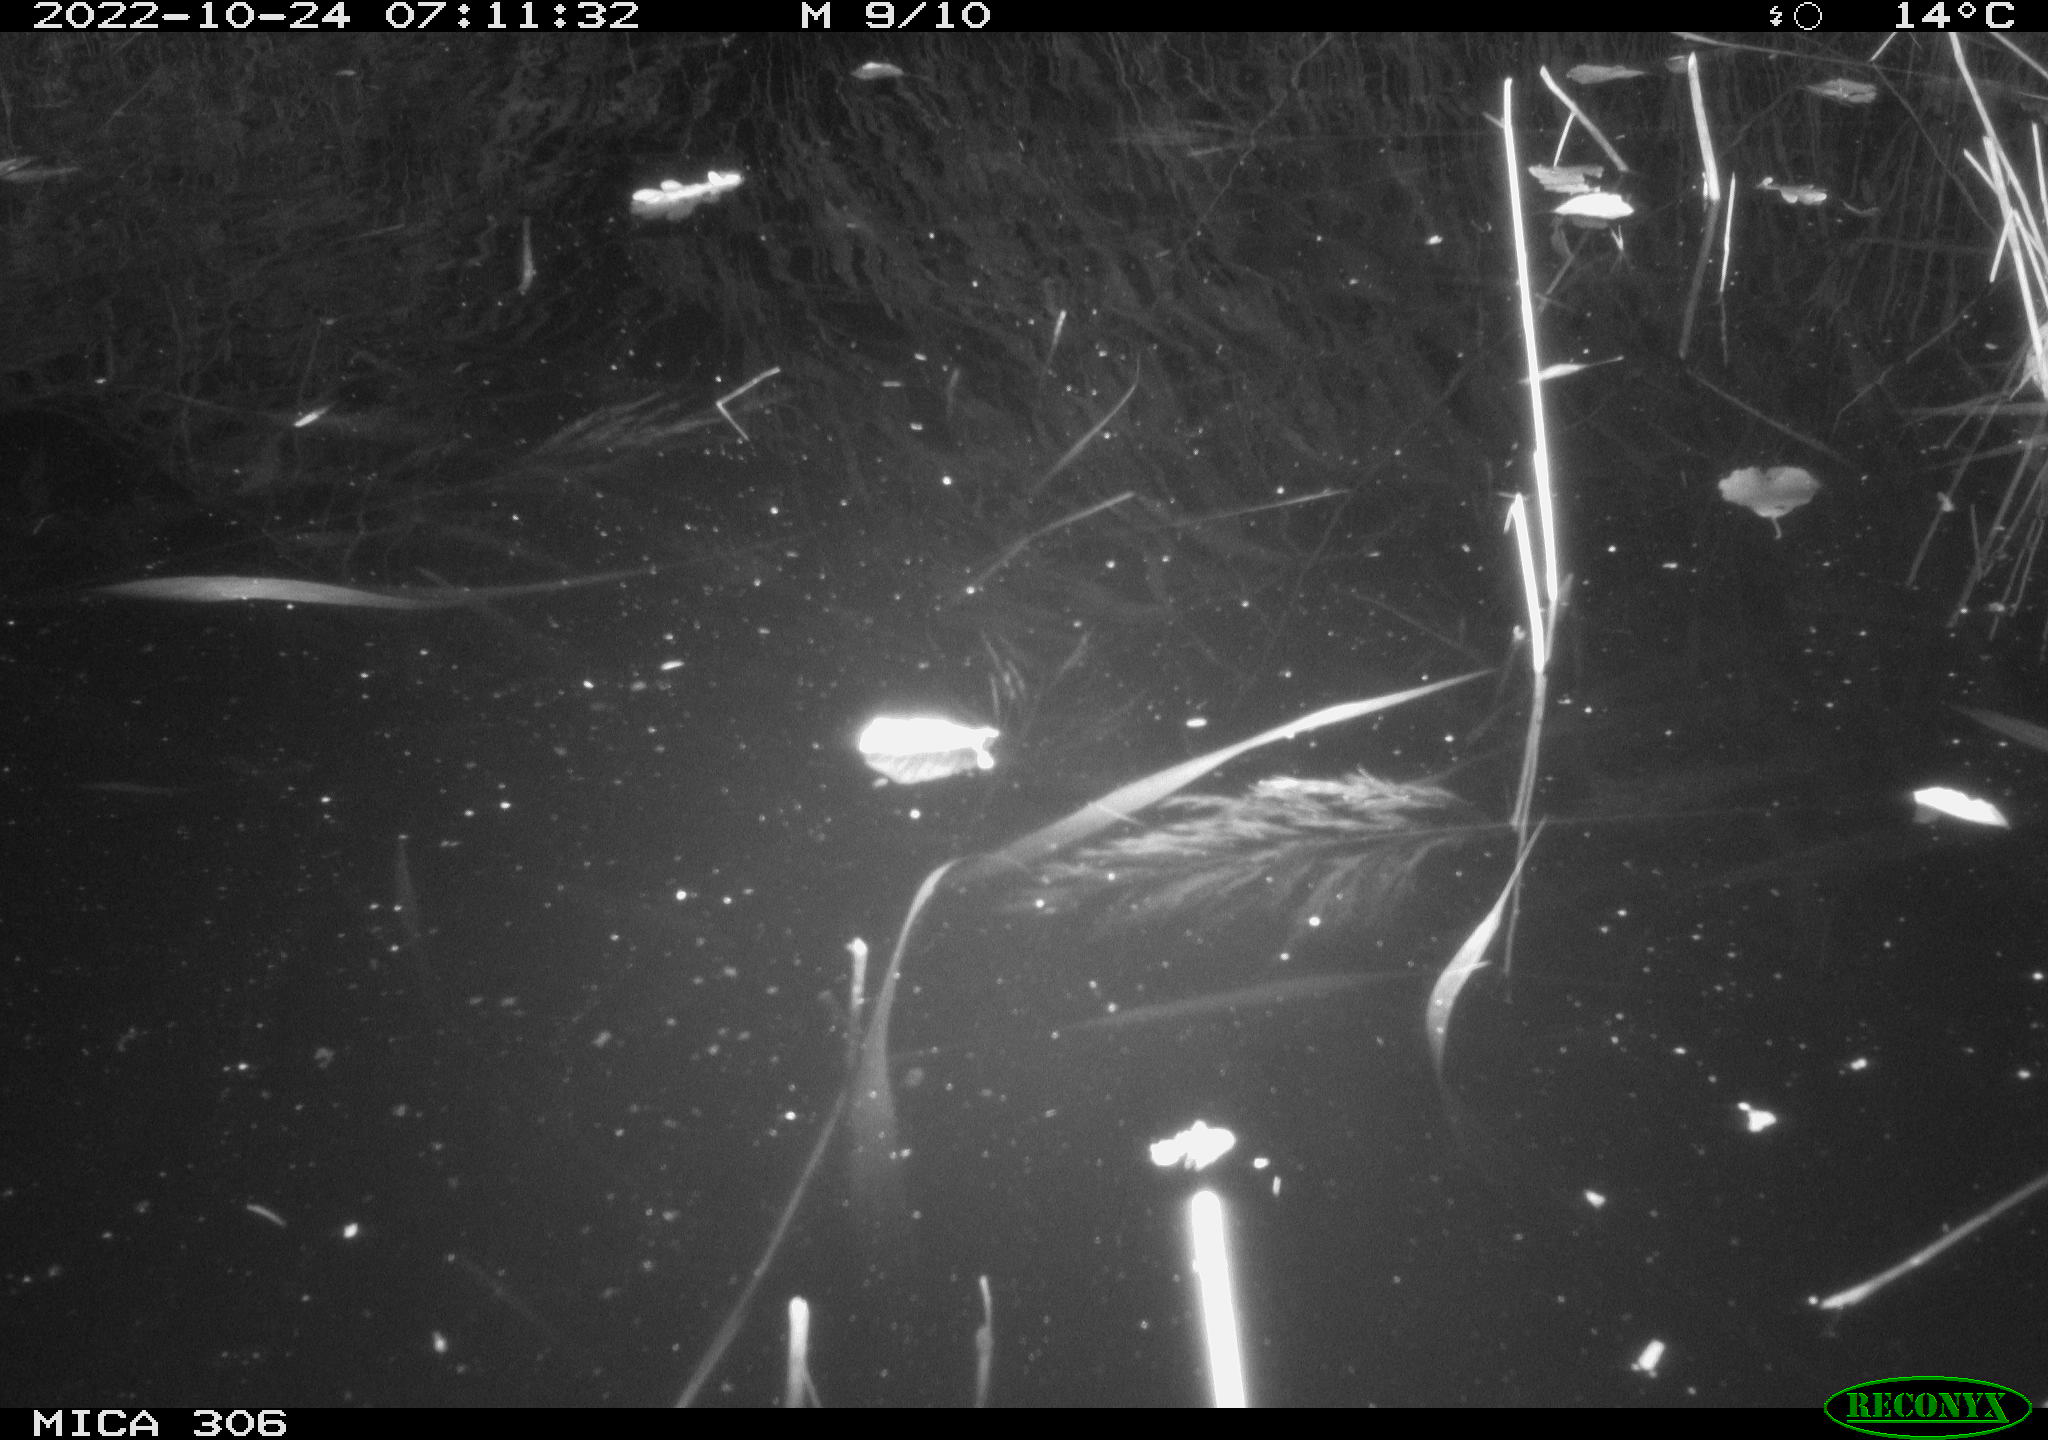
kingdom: Animalia
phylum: Chordata
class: Mammalia
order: Rodentia
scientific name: Rodentia
